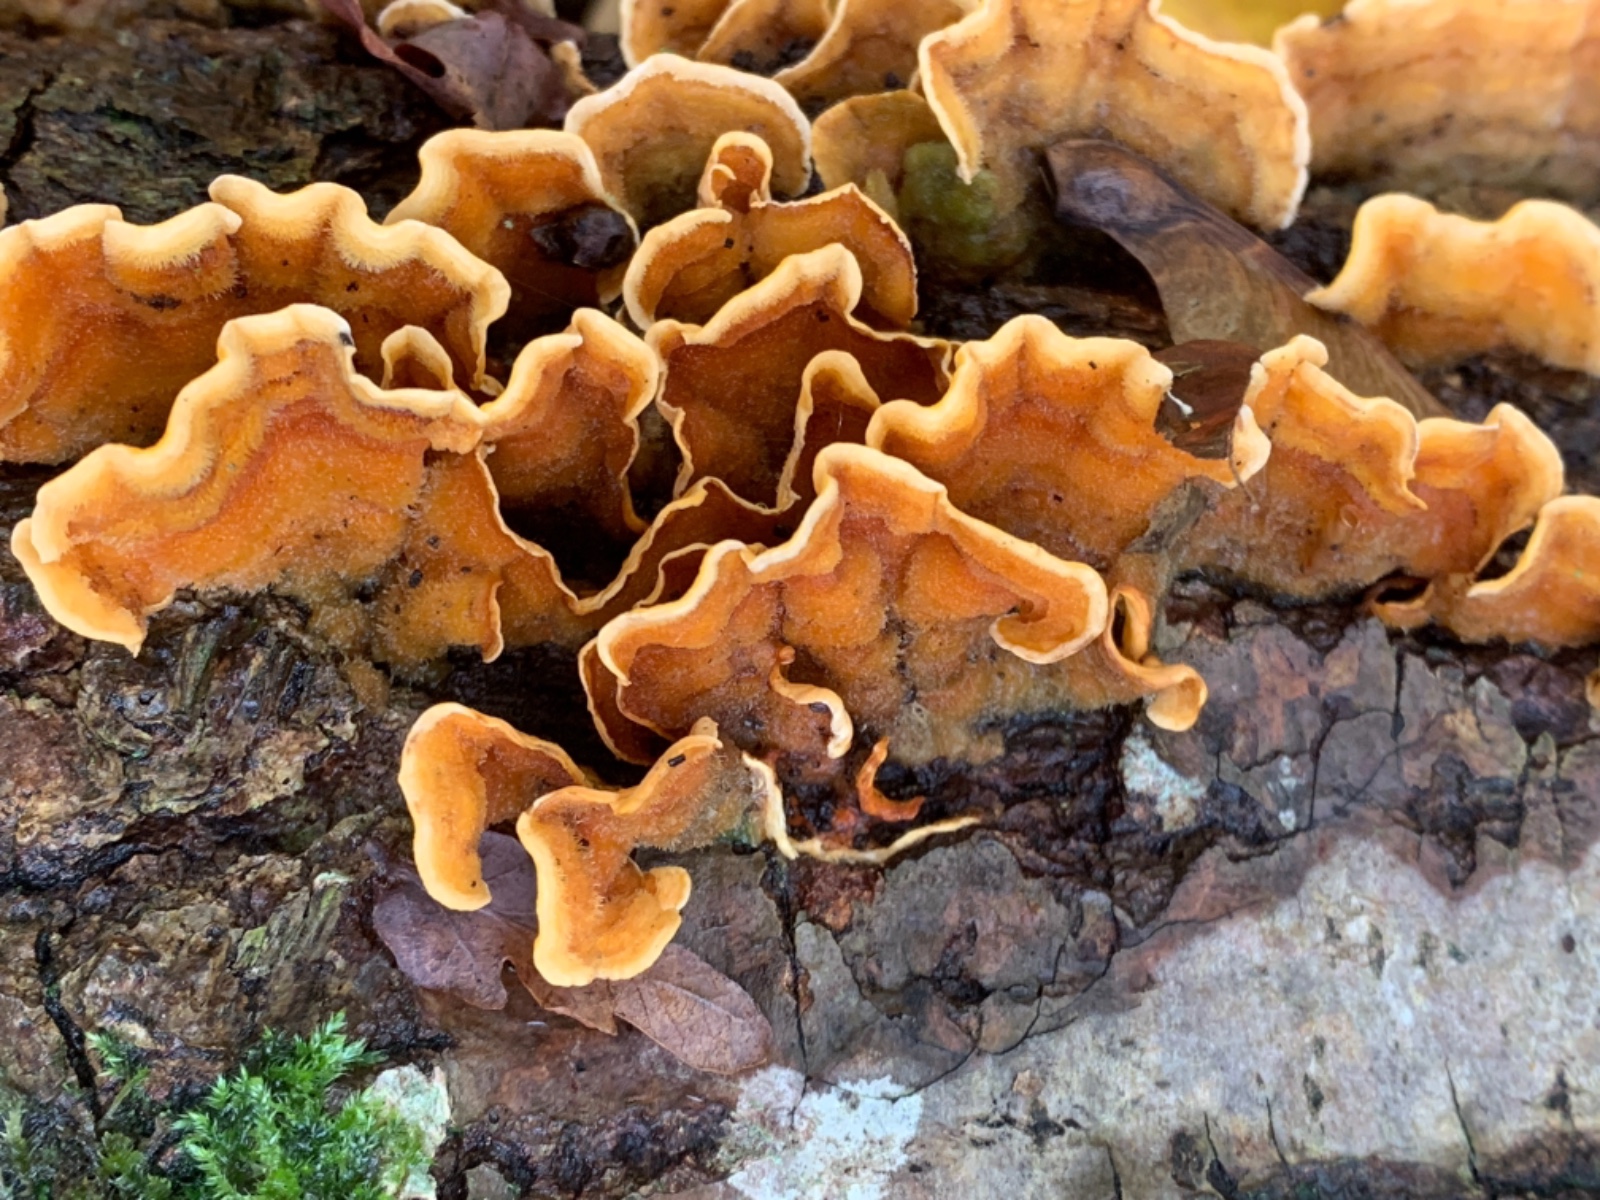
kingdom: Fungi
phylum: Basidiomycota
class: Agaricomycetes
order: Russulales
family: Stereaceae
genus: Stereum
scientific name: Stereum hirsutum
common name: håret lædersvamp
